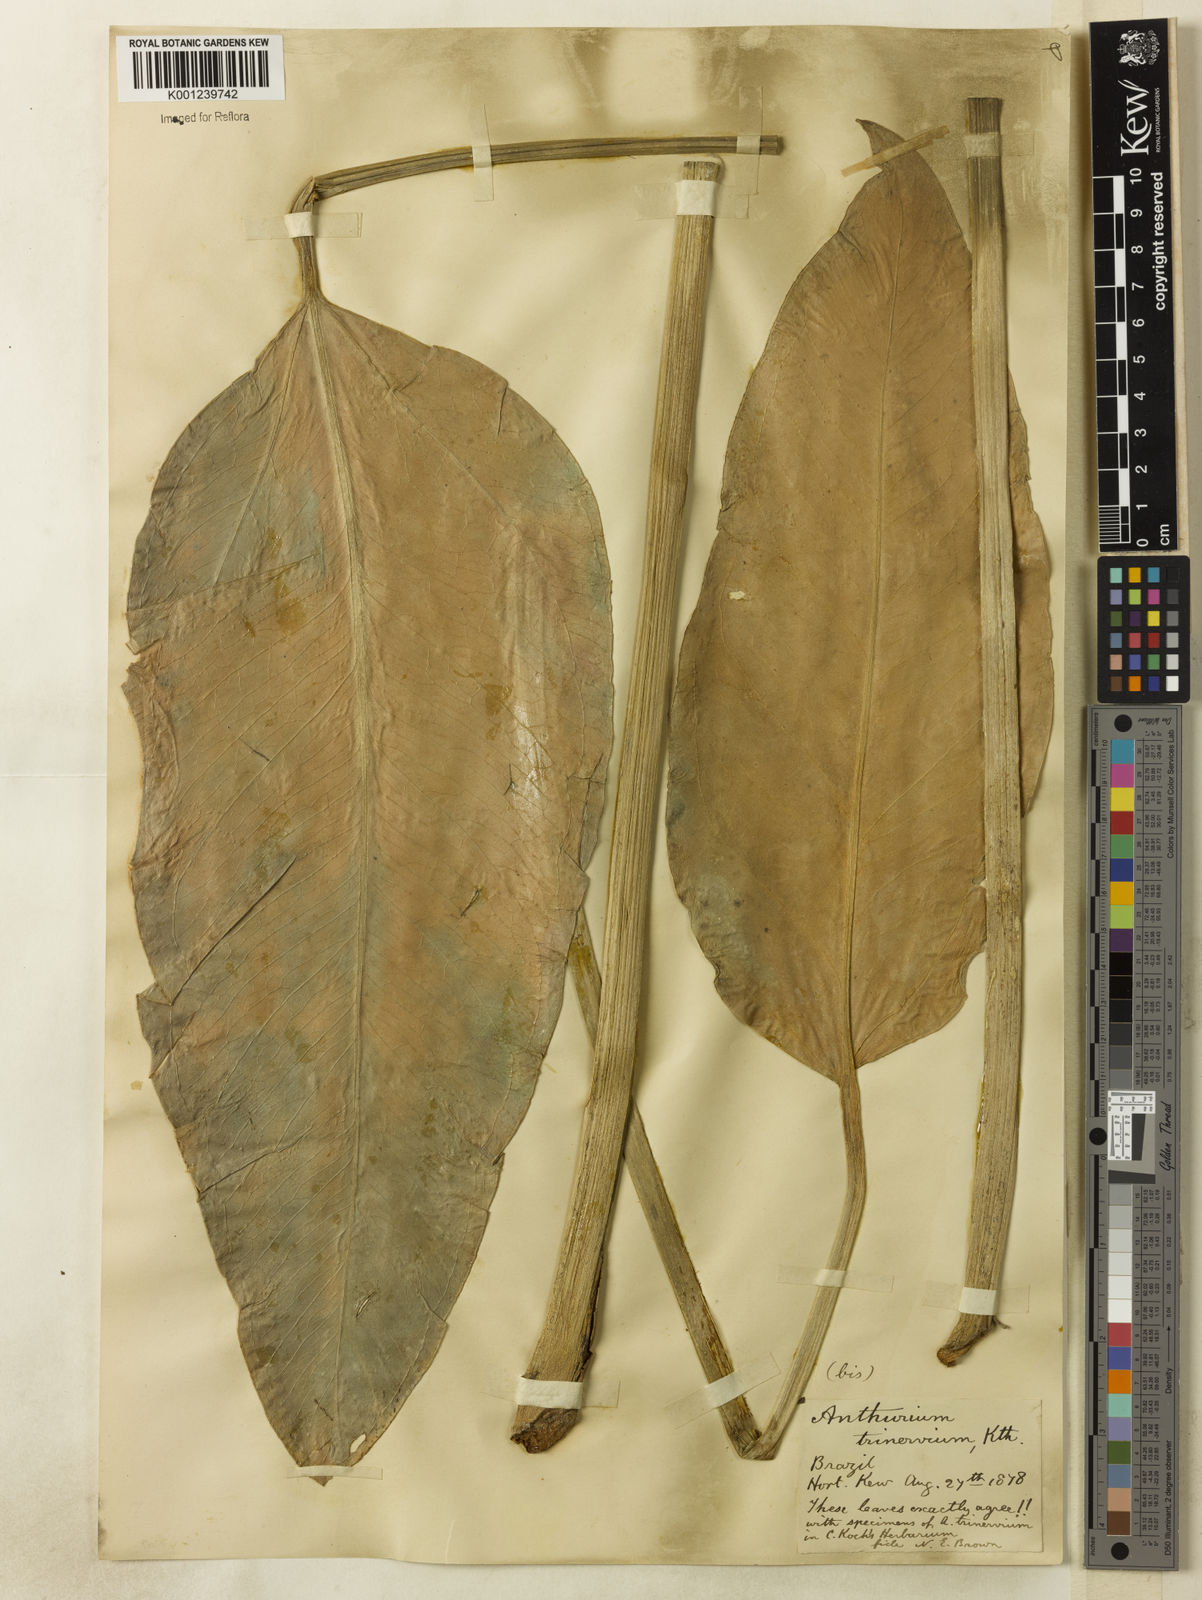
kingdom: Plantae
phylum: Tracheophyta
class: Liliopsida
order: Alismatales
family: Araceae
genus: Anthurium
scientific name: Anthurium trinervium
